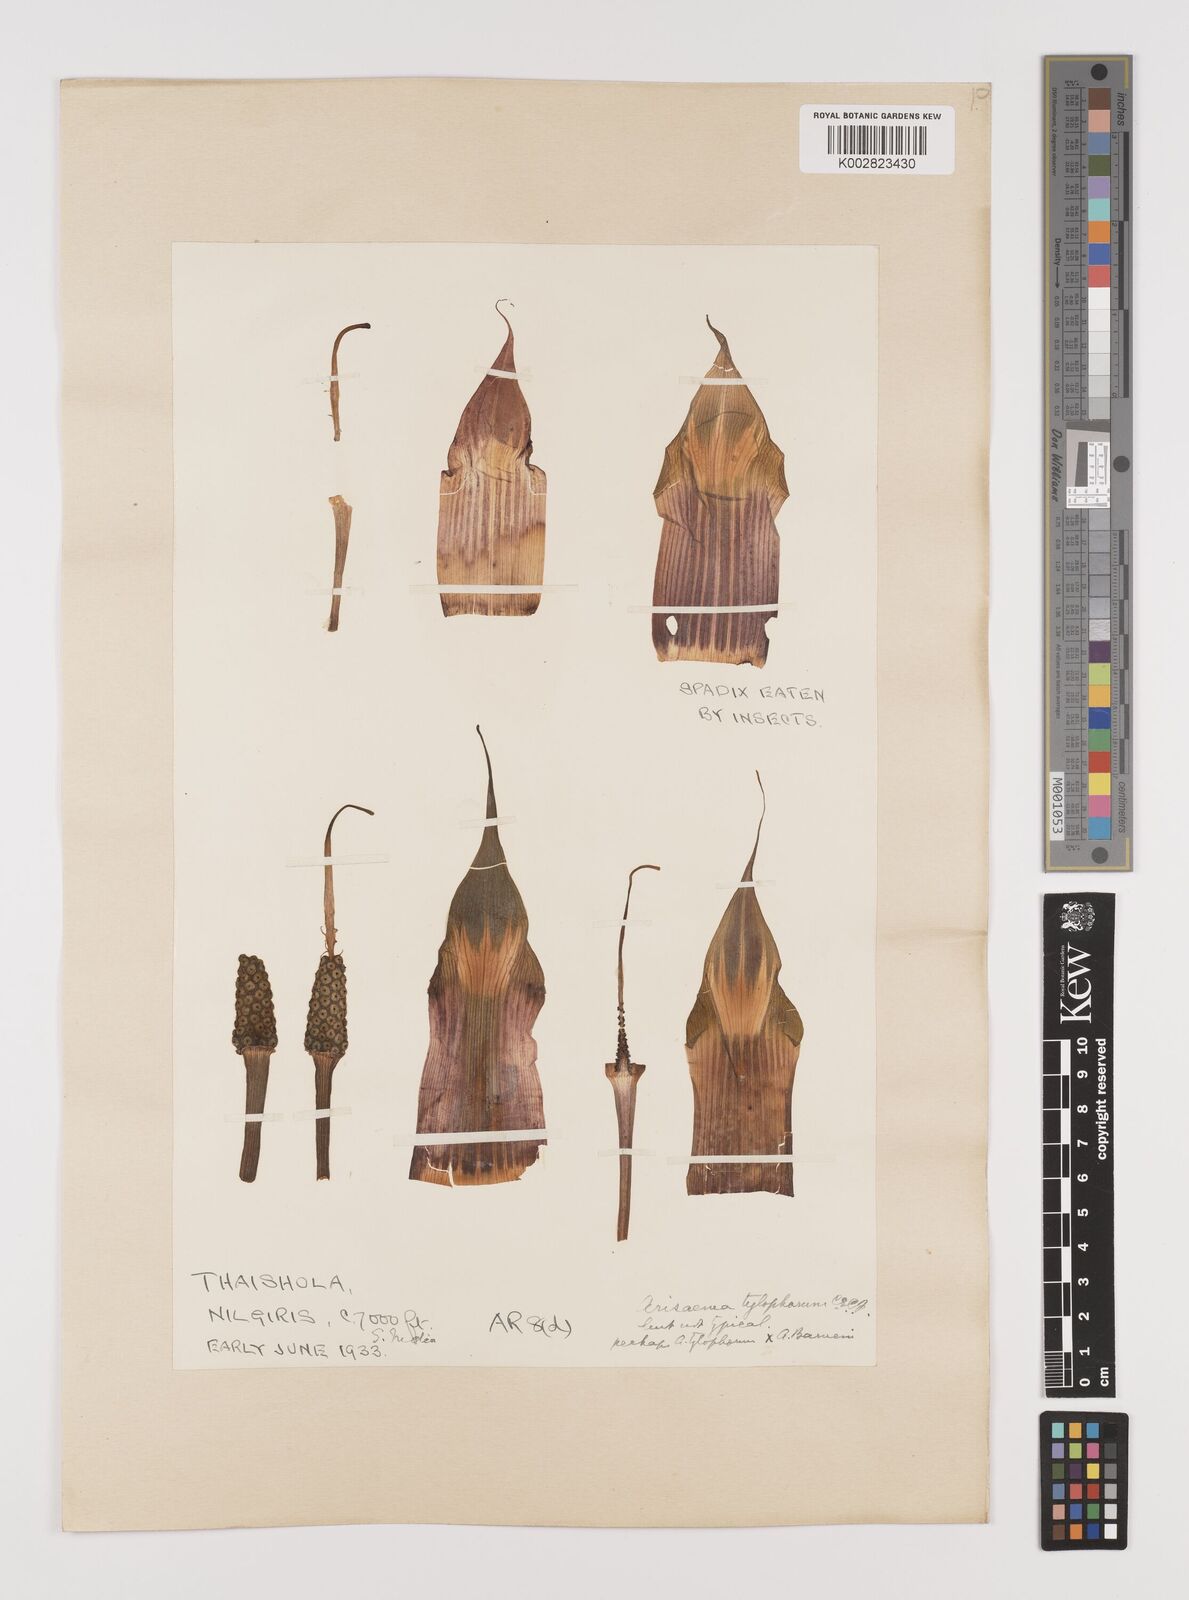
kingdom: Plantae
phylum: Tracheophyta
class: Liliopsida
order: Alismatales
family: Araceae
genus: Arisaema
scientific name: Arisaema barnesii
